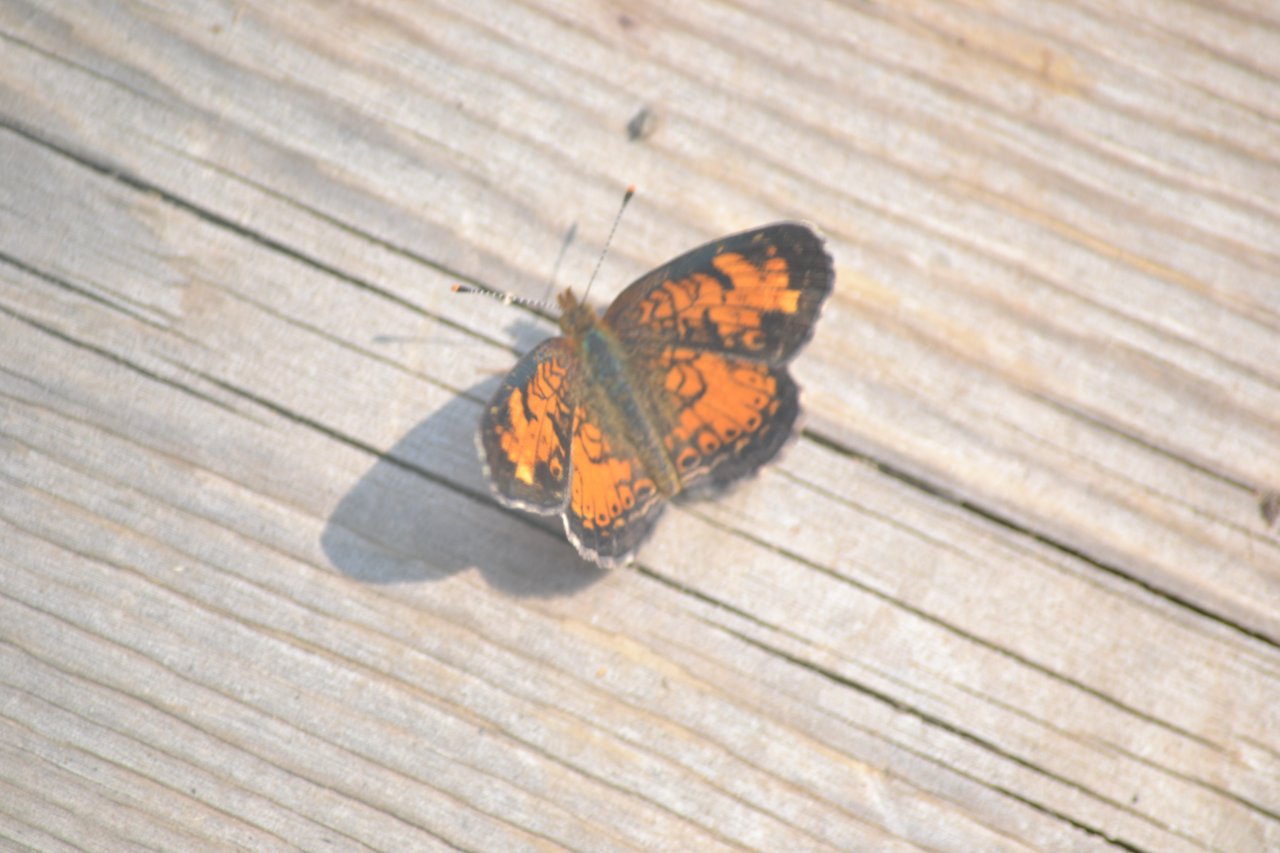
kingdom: Animalia
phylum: Arthropoda
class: Insecta
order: Lepidoptera
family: Nymphalidae
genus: Phyciodes
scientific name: Phyciodes tharos
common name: Northern Crescent
